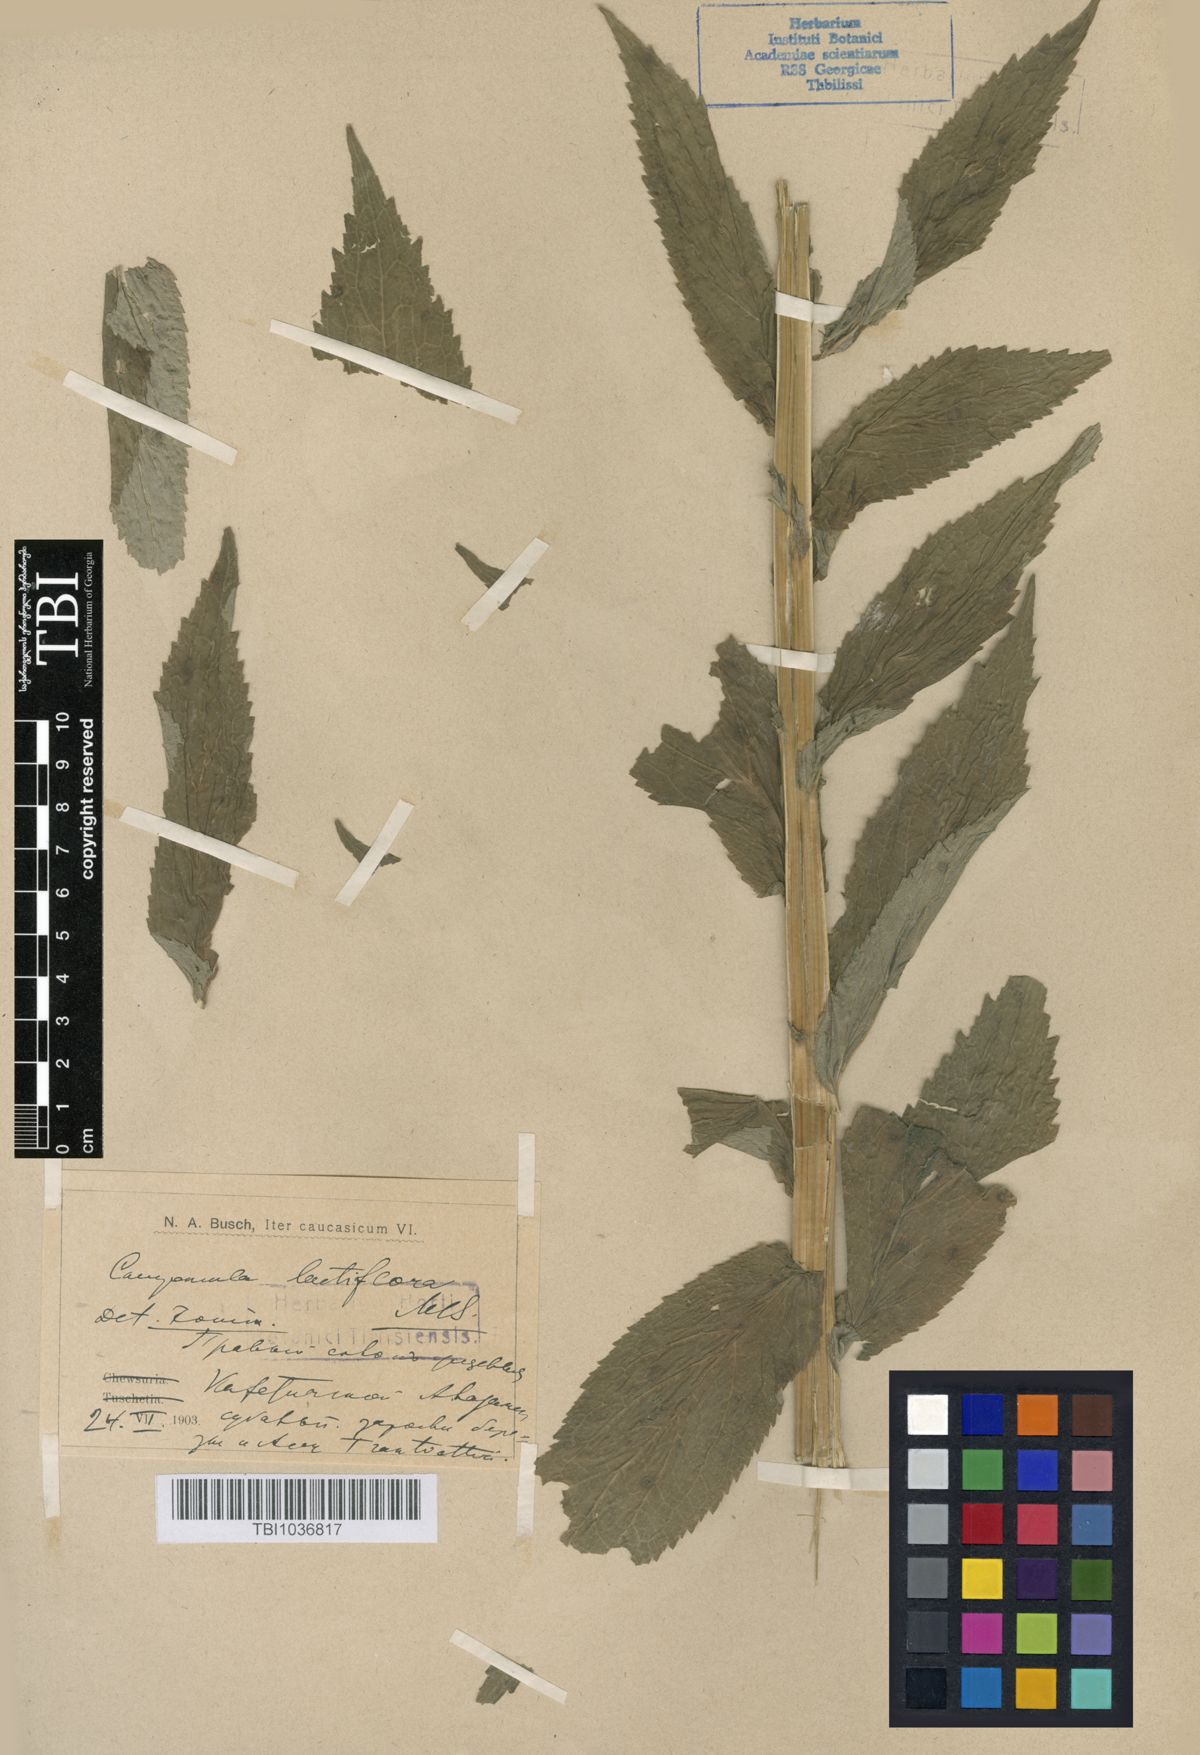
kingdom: Plantae
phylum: Tracheophyta
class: Magnoliopsida
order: Asterales
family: Campanulaceae
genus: Campanula
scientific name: Campanula lactiflora
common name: Milky bellflower
